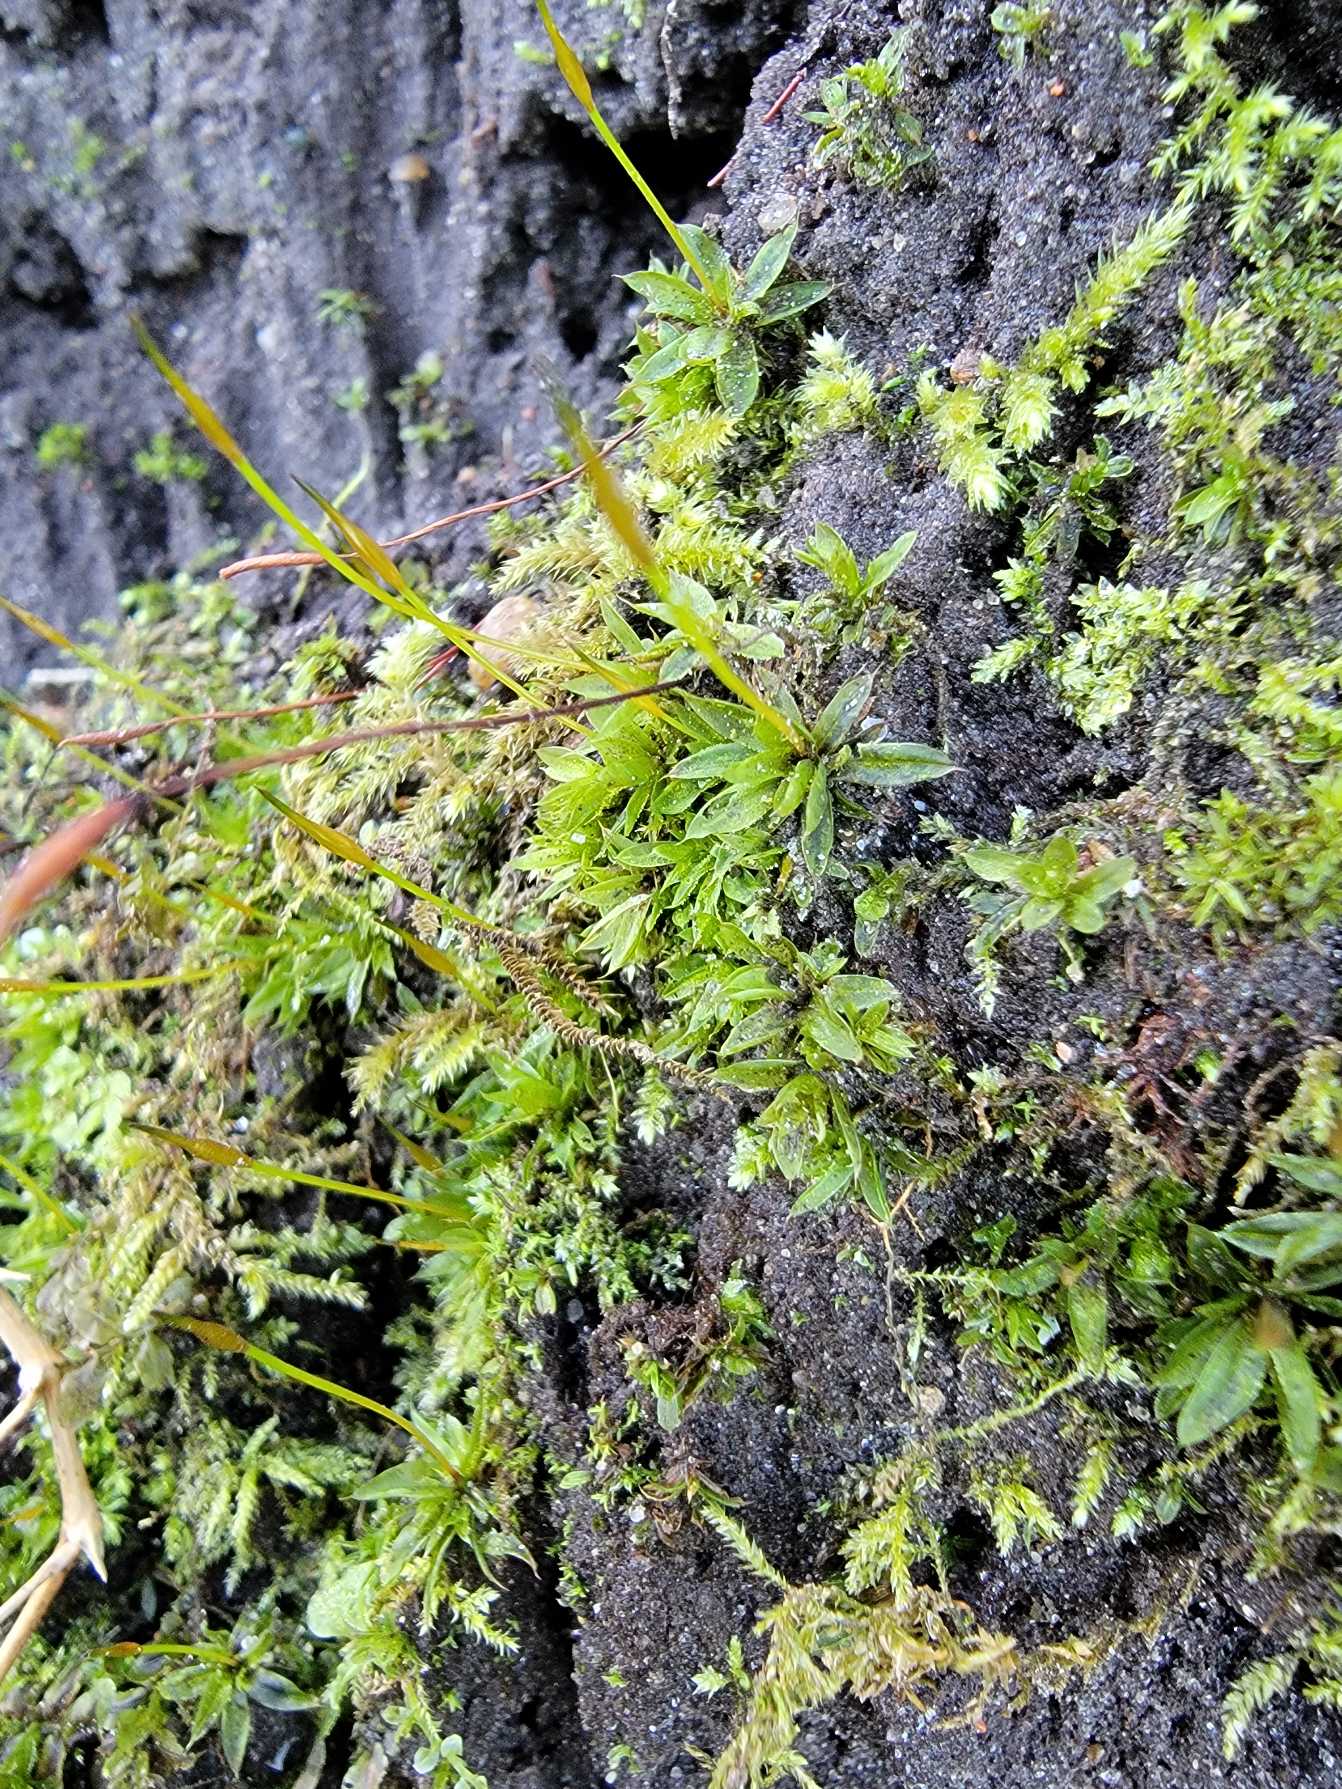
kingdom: Plantae
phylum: Bryophyta
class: Bryopsida
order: Pottiales
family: Pottiaceae
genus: Tortula
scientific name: Tortula subulata
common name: Syl-snotand
